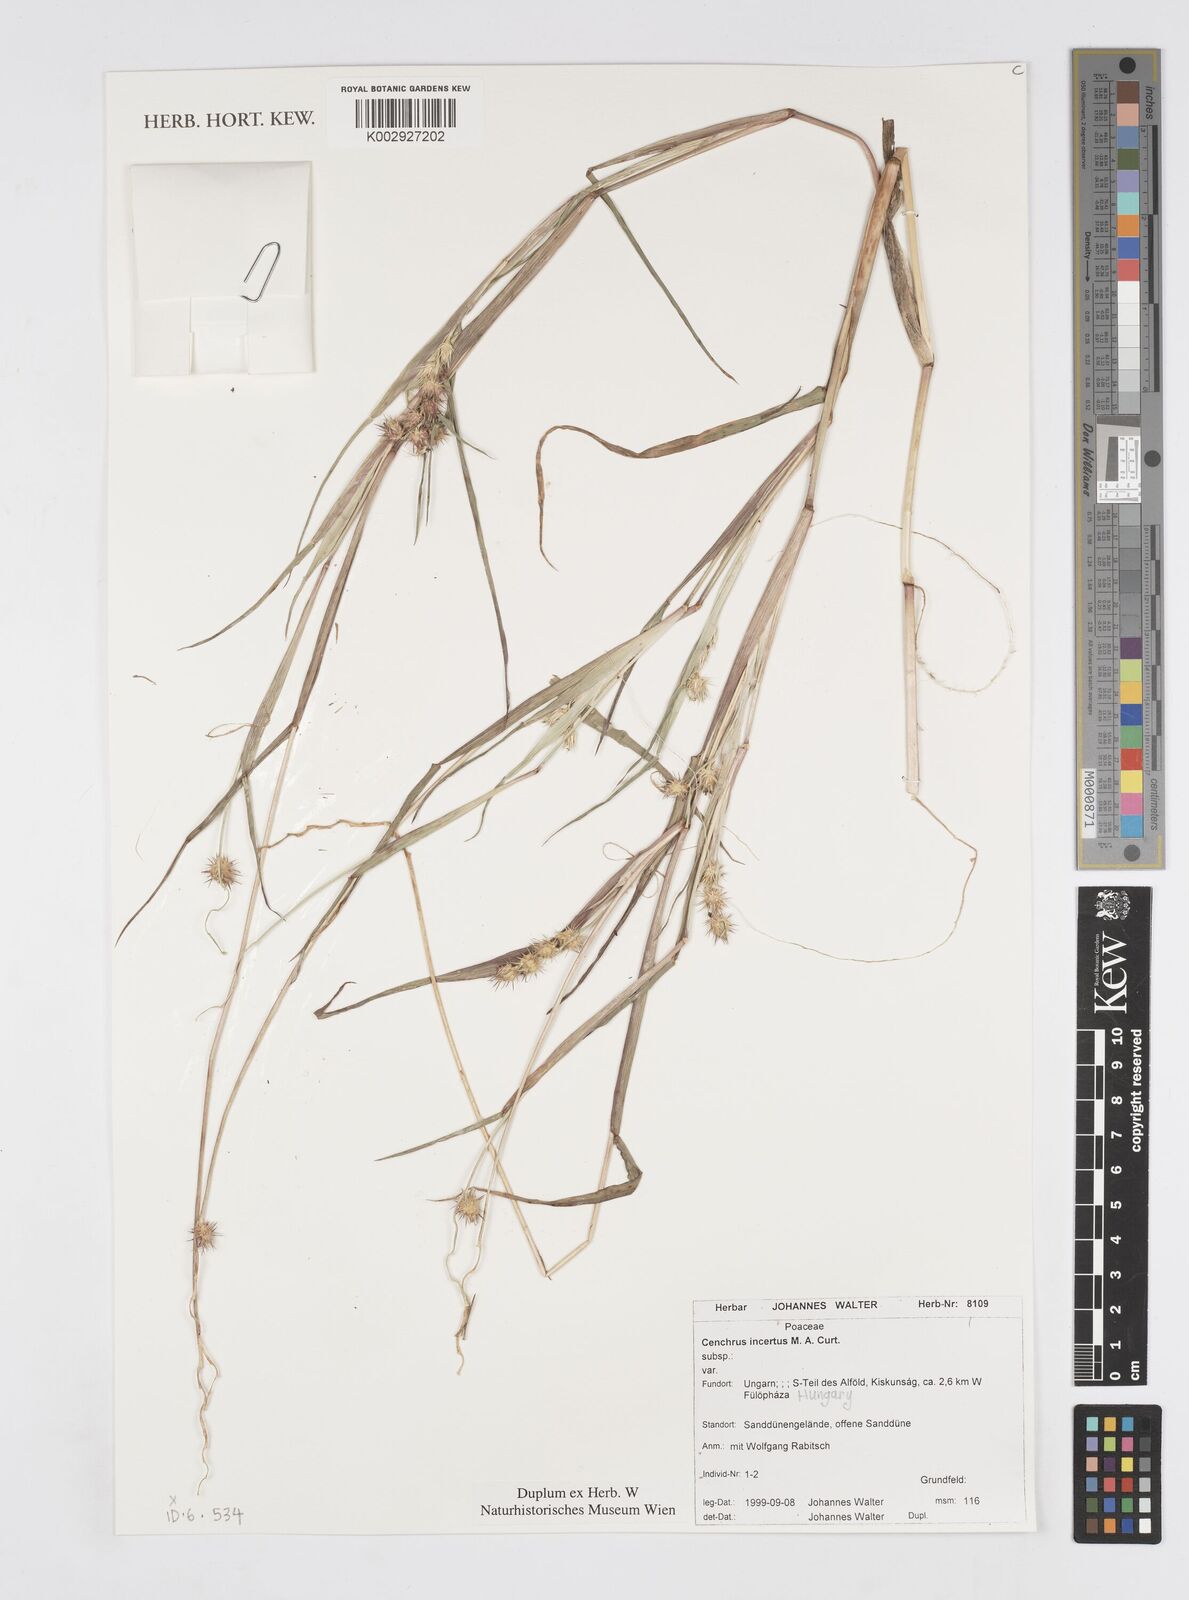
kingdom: Plantae
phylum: Tracheophyta
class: Liliopsida
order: Poales
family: Poaceae
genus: Cenchrus
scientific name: Cenchrus spinifex
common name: Coast sandbur
